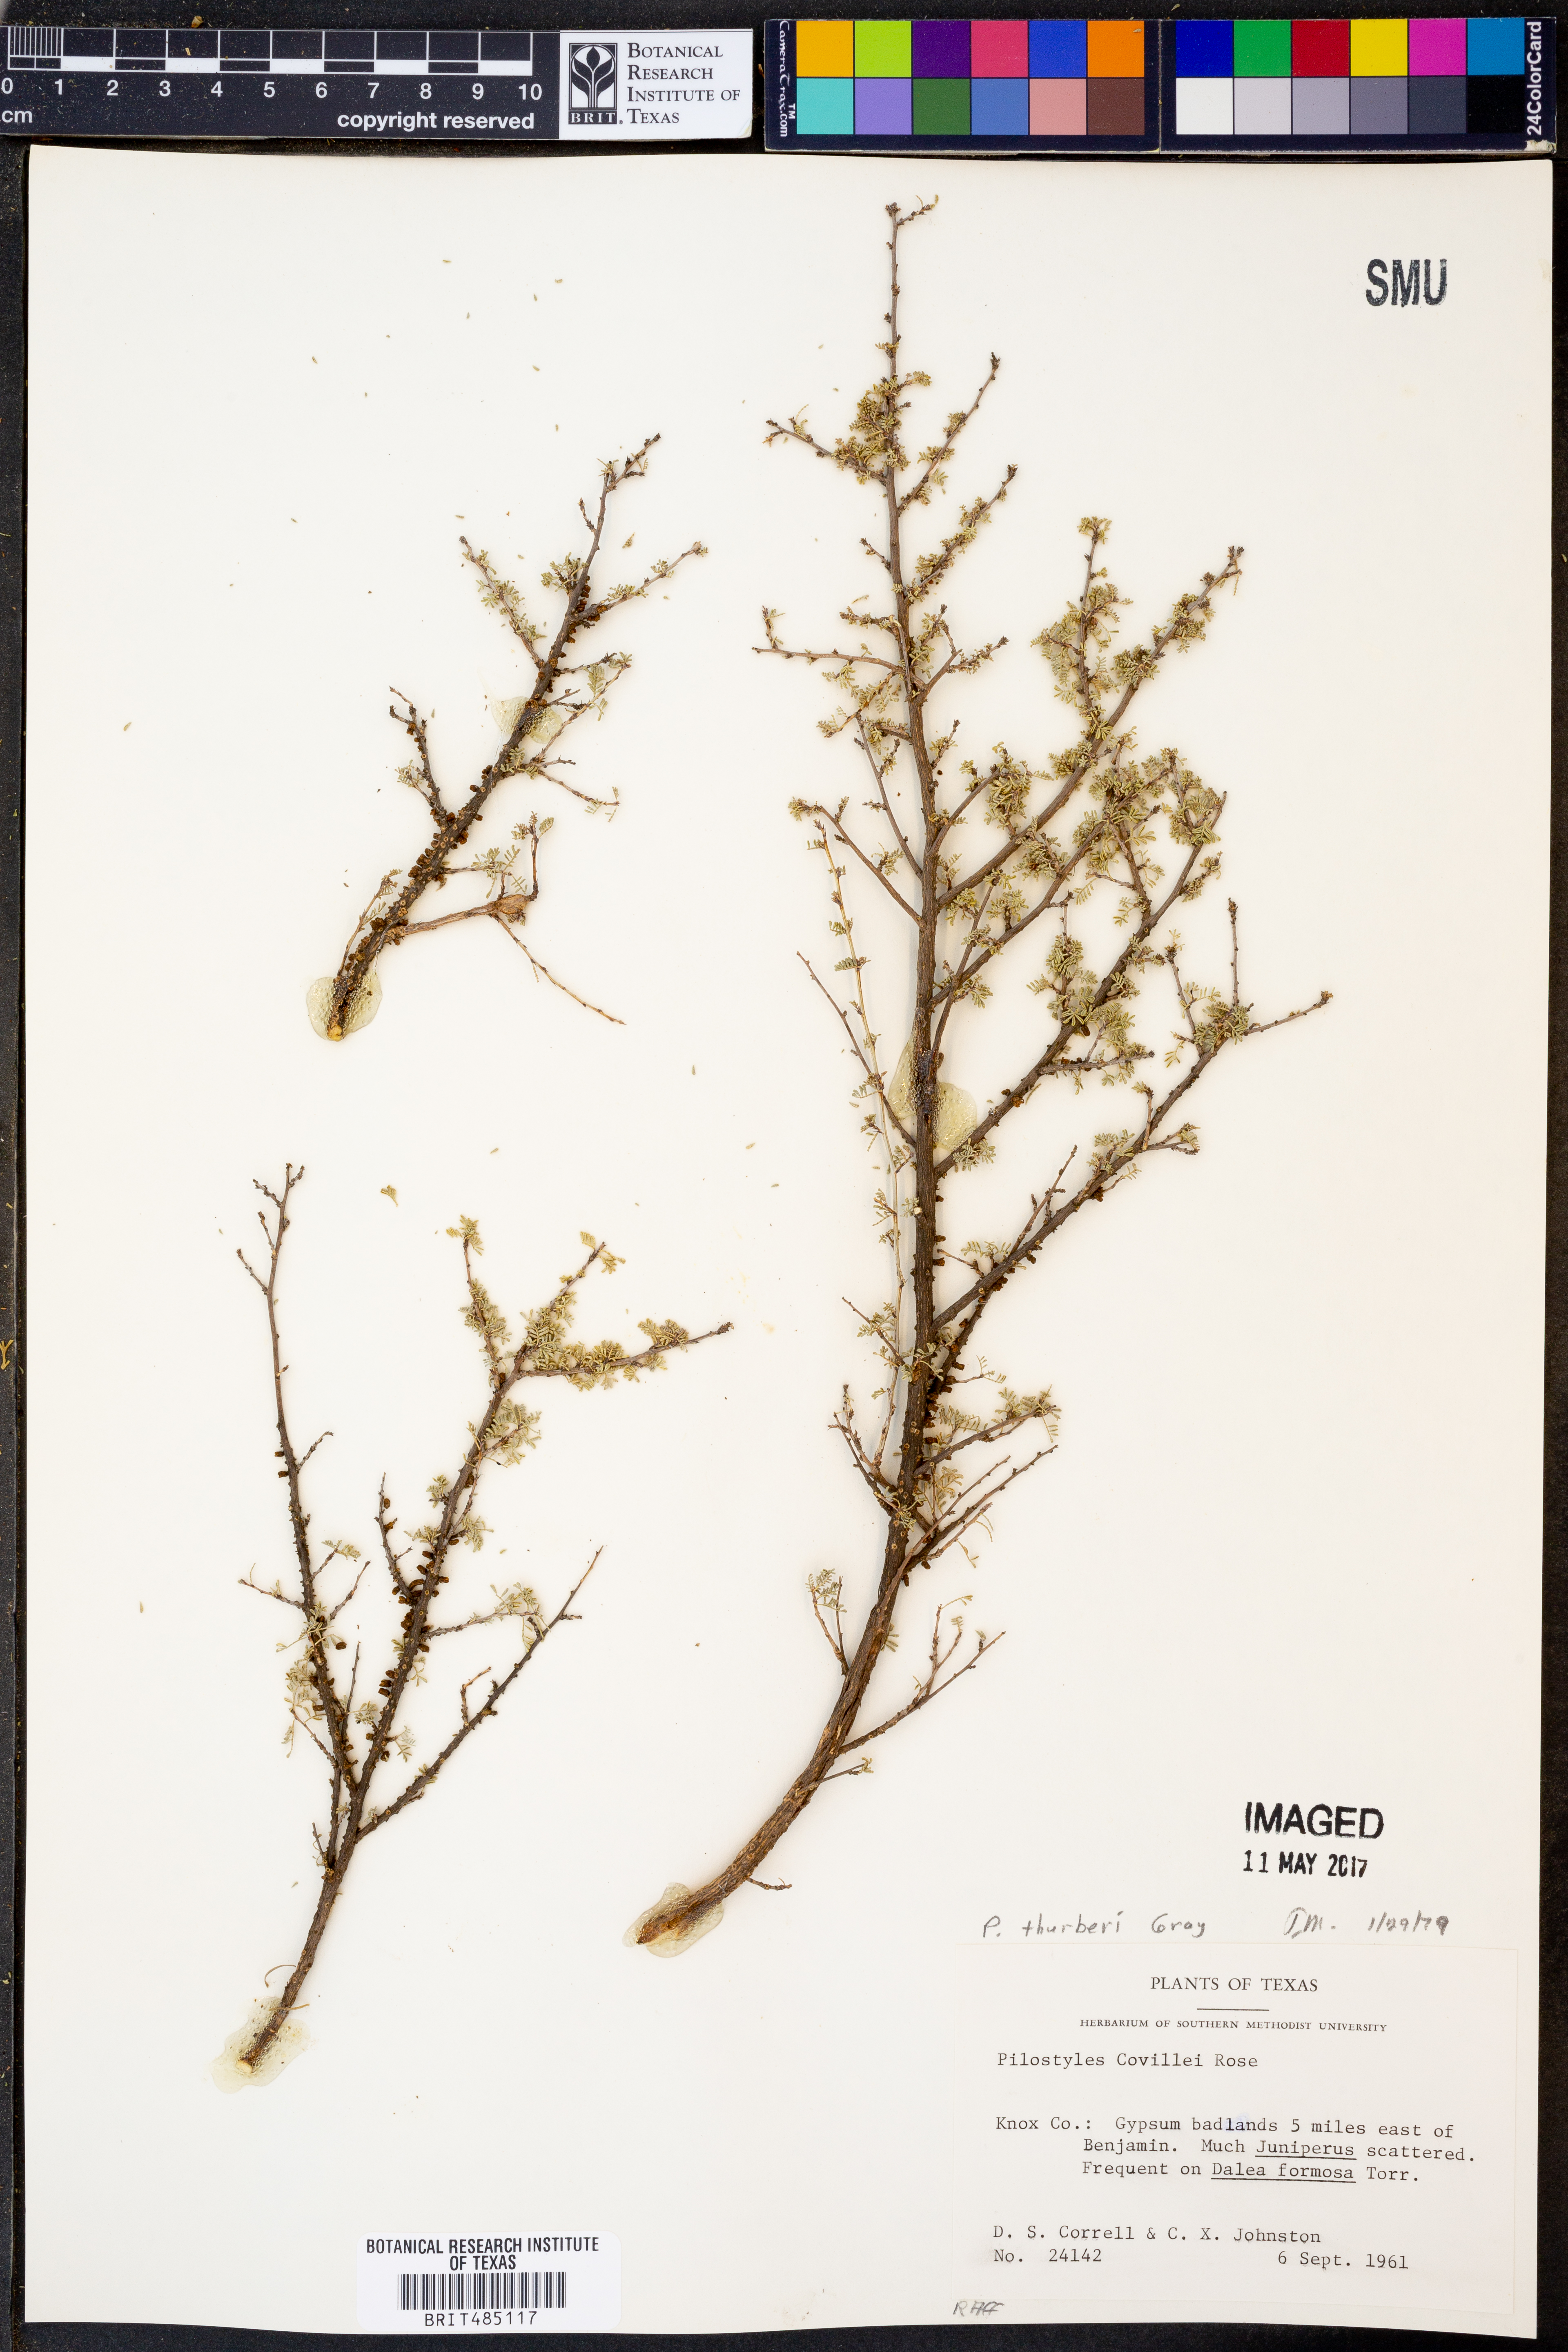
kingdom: Plantae
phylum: Tracheophyta
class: Magnoliopsida
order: Cucurbitales
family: Apodanthaceae
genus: Pilostyles
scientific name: Pilostyles thurberi
